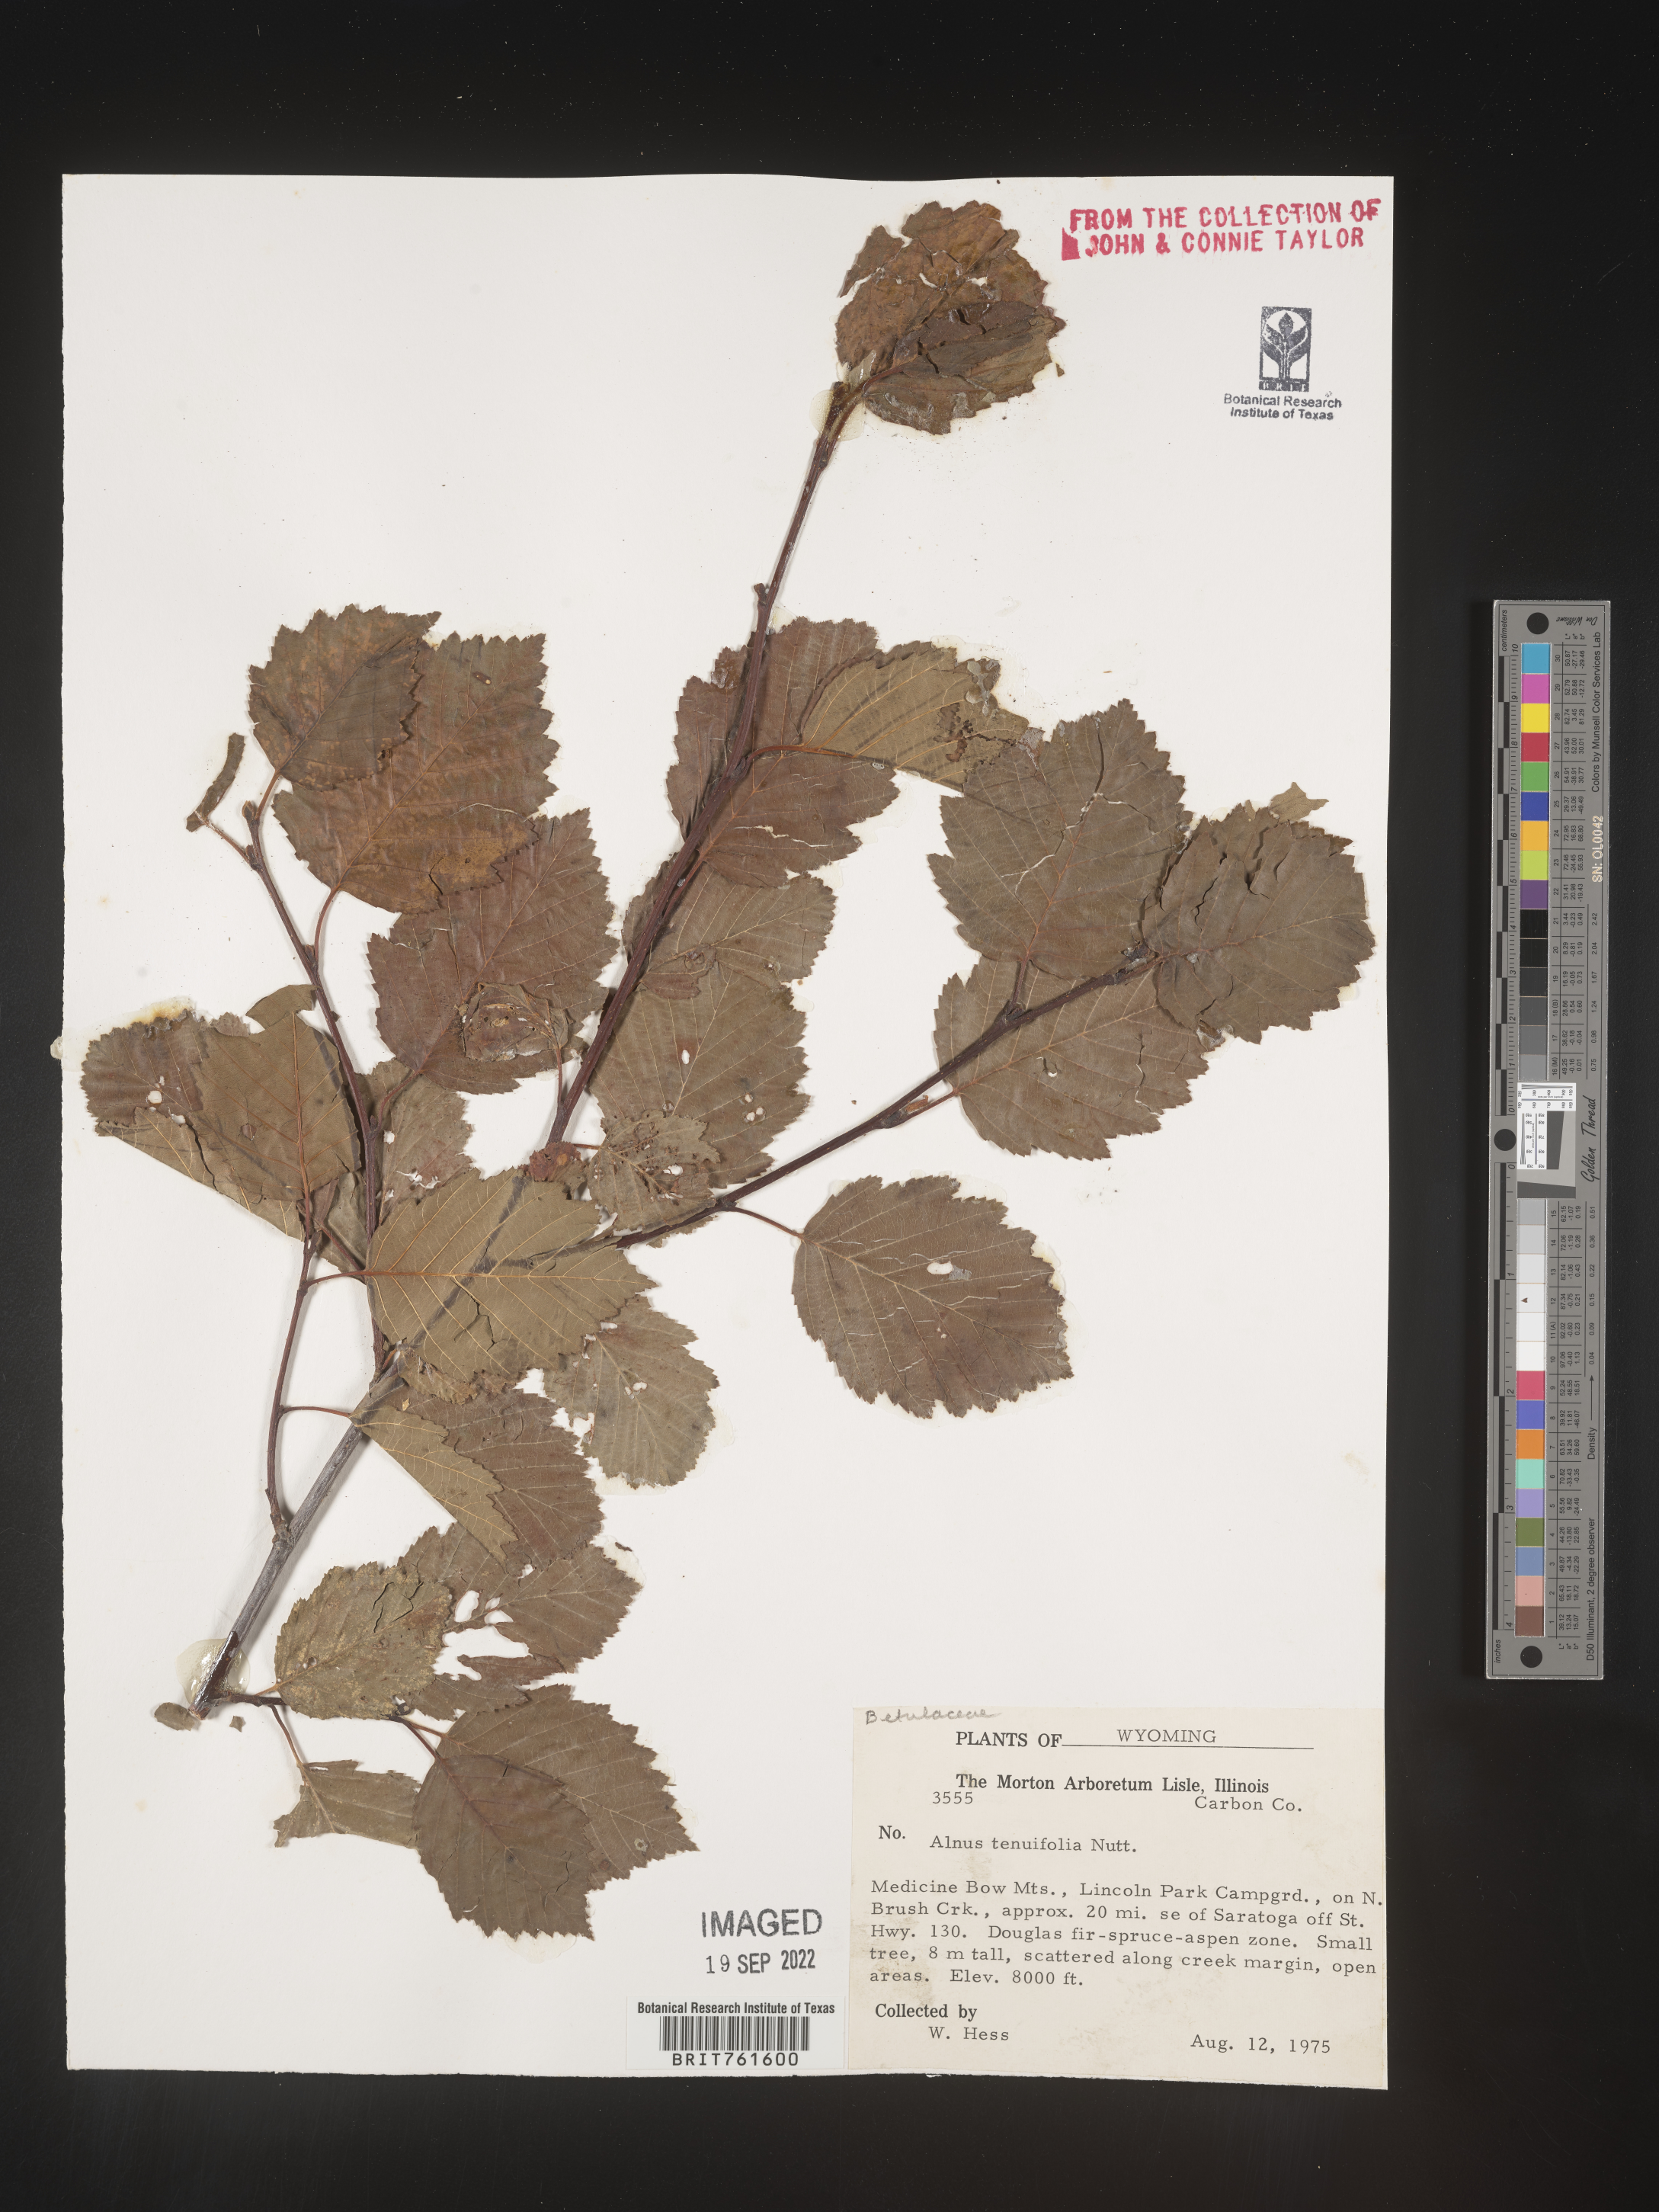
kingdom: Plantae
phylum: Tracheophyta
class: Magnoliopsida
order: Fagales
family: Betulaceae
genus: Alnus
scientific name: Alnus incana
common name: Grey alder
